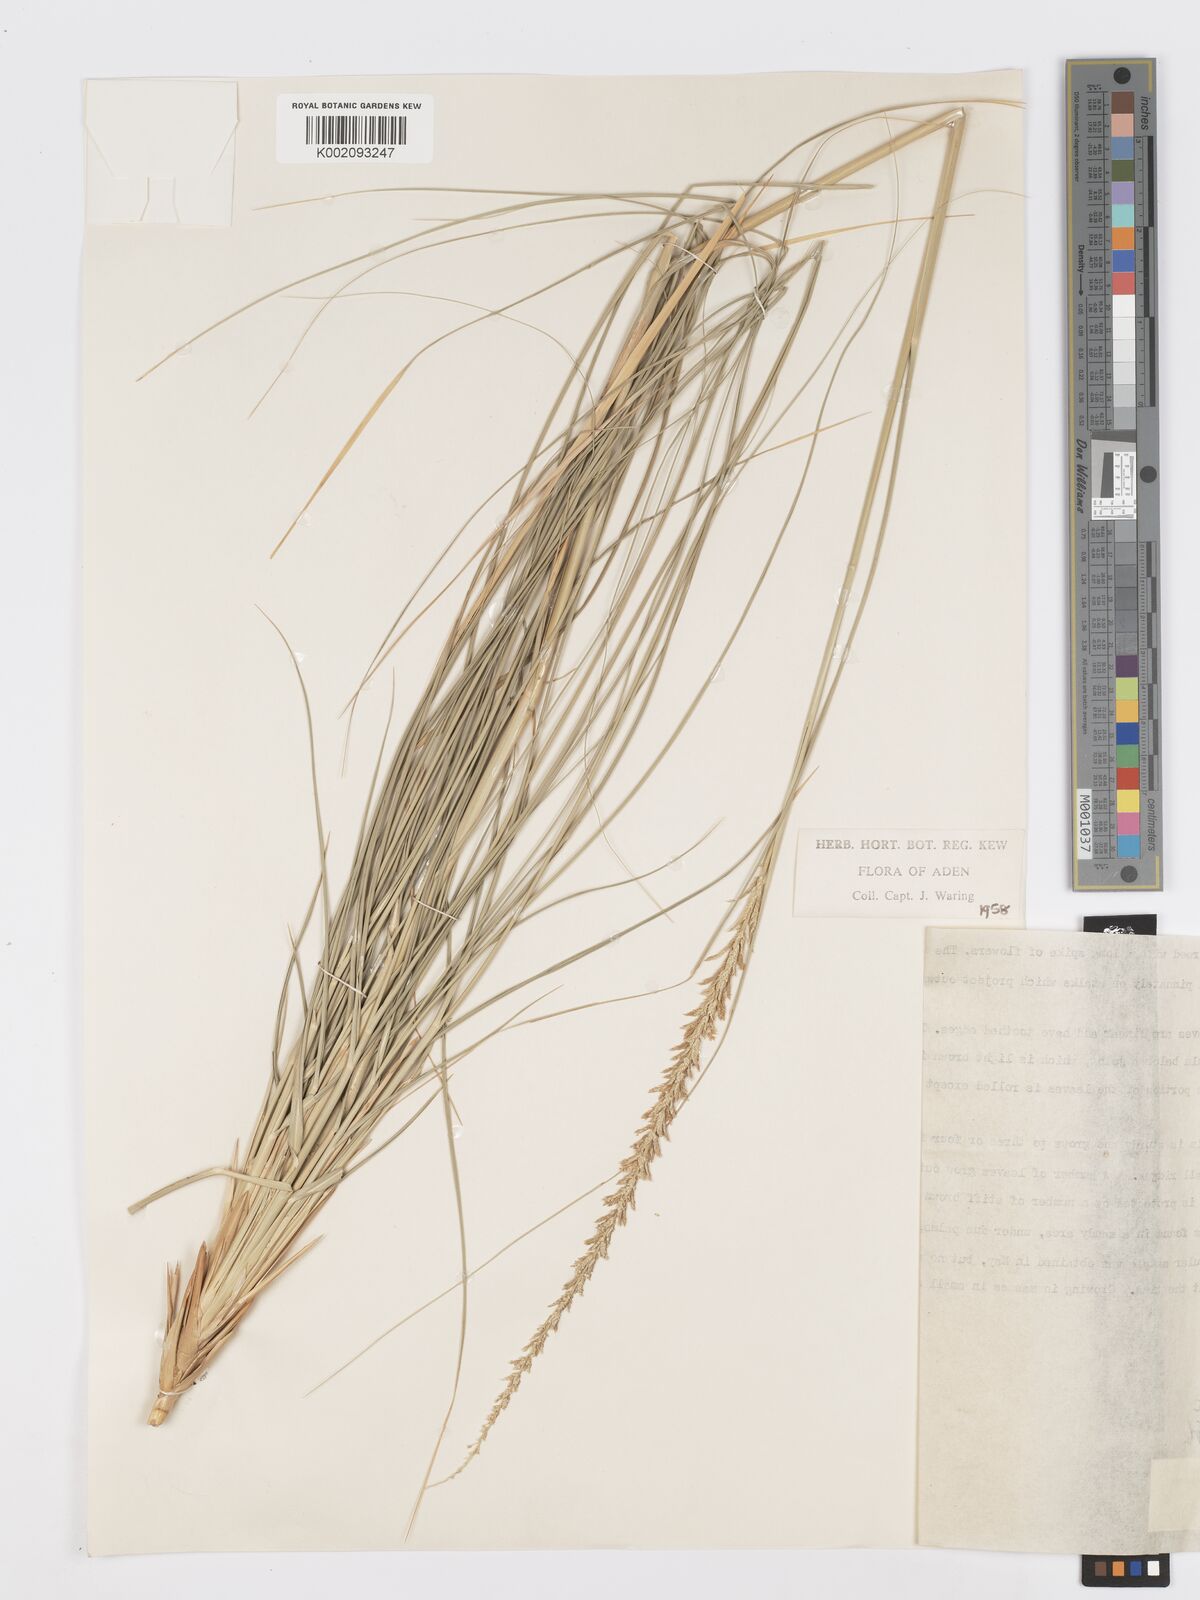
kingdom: Plantae
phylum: Tracheophyta
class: Liliopsida
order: Poales
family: Poaceae
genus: Desmostachya
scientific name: Desmostachya bipinnata
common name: Crowfoot grass
